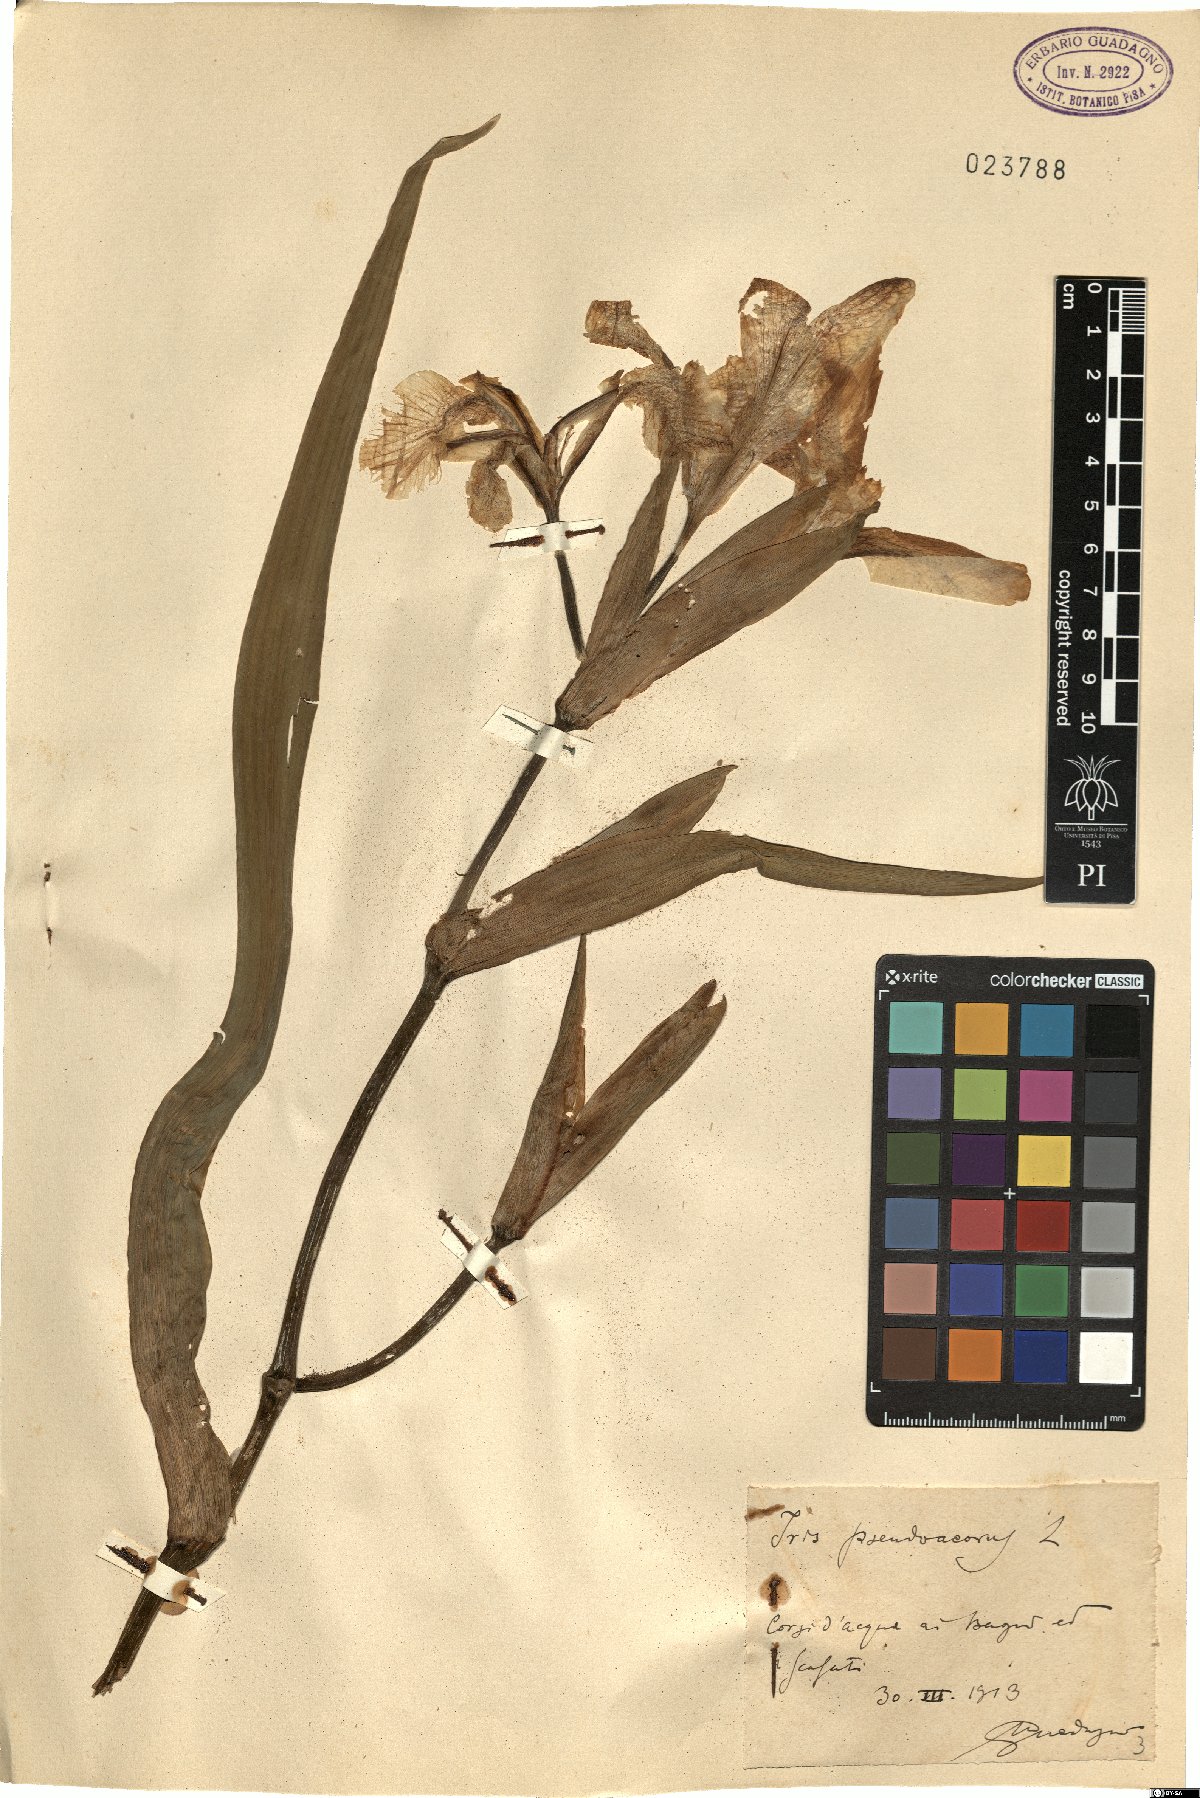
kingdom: Plantae
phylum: Tracheophyta
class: Liliopsida
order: Asparagales
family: Iridaceae
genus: Iris
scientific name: Iris pseudacorus
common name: Yellow flag
